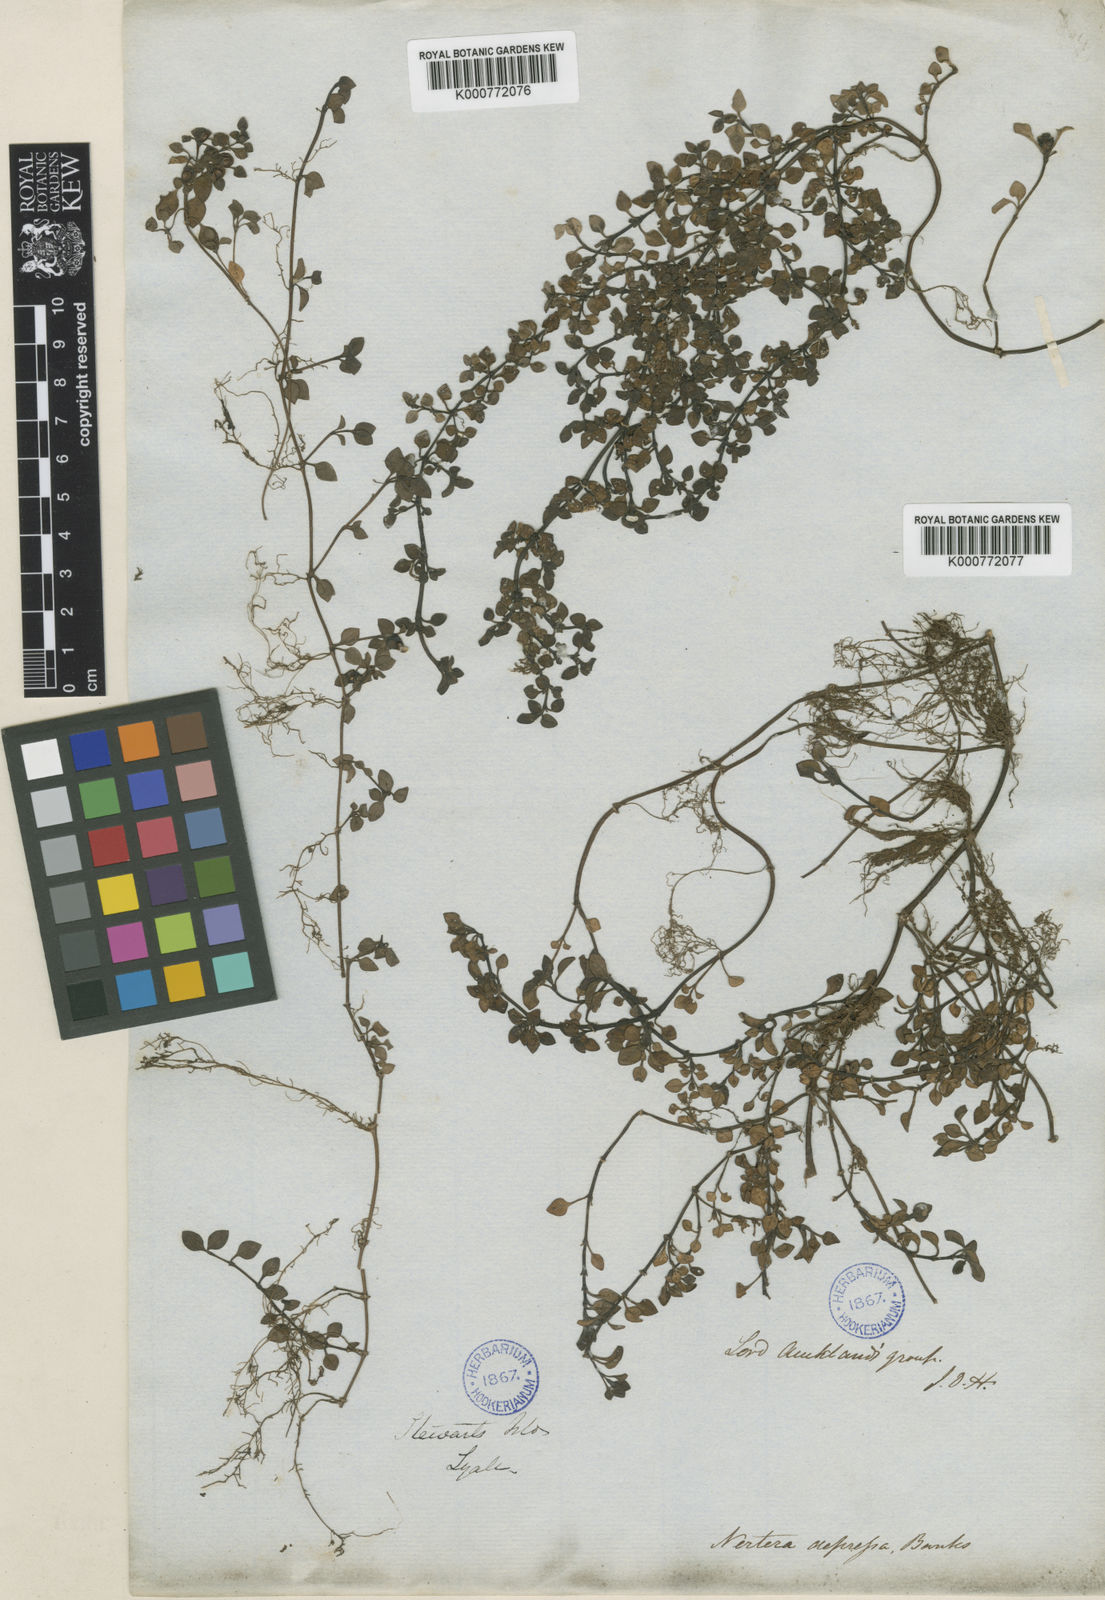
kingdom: Plantae
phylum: Tracheophyta
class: Magnoliopsida
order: Gentianales
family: Rubiaceae
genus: Nertera
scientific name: Nertera granadensis
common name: Beadplant
